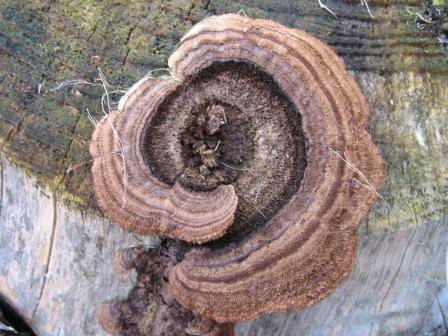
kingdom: Fungi
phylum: Basidiomycota
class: Agaricomycetes
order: Gloeophyllales
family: Gloeophyllaceae
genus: Gloeophyllum
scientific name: Gloeophyllum sepiarium
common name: fyrre-korkhat
